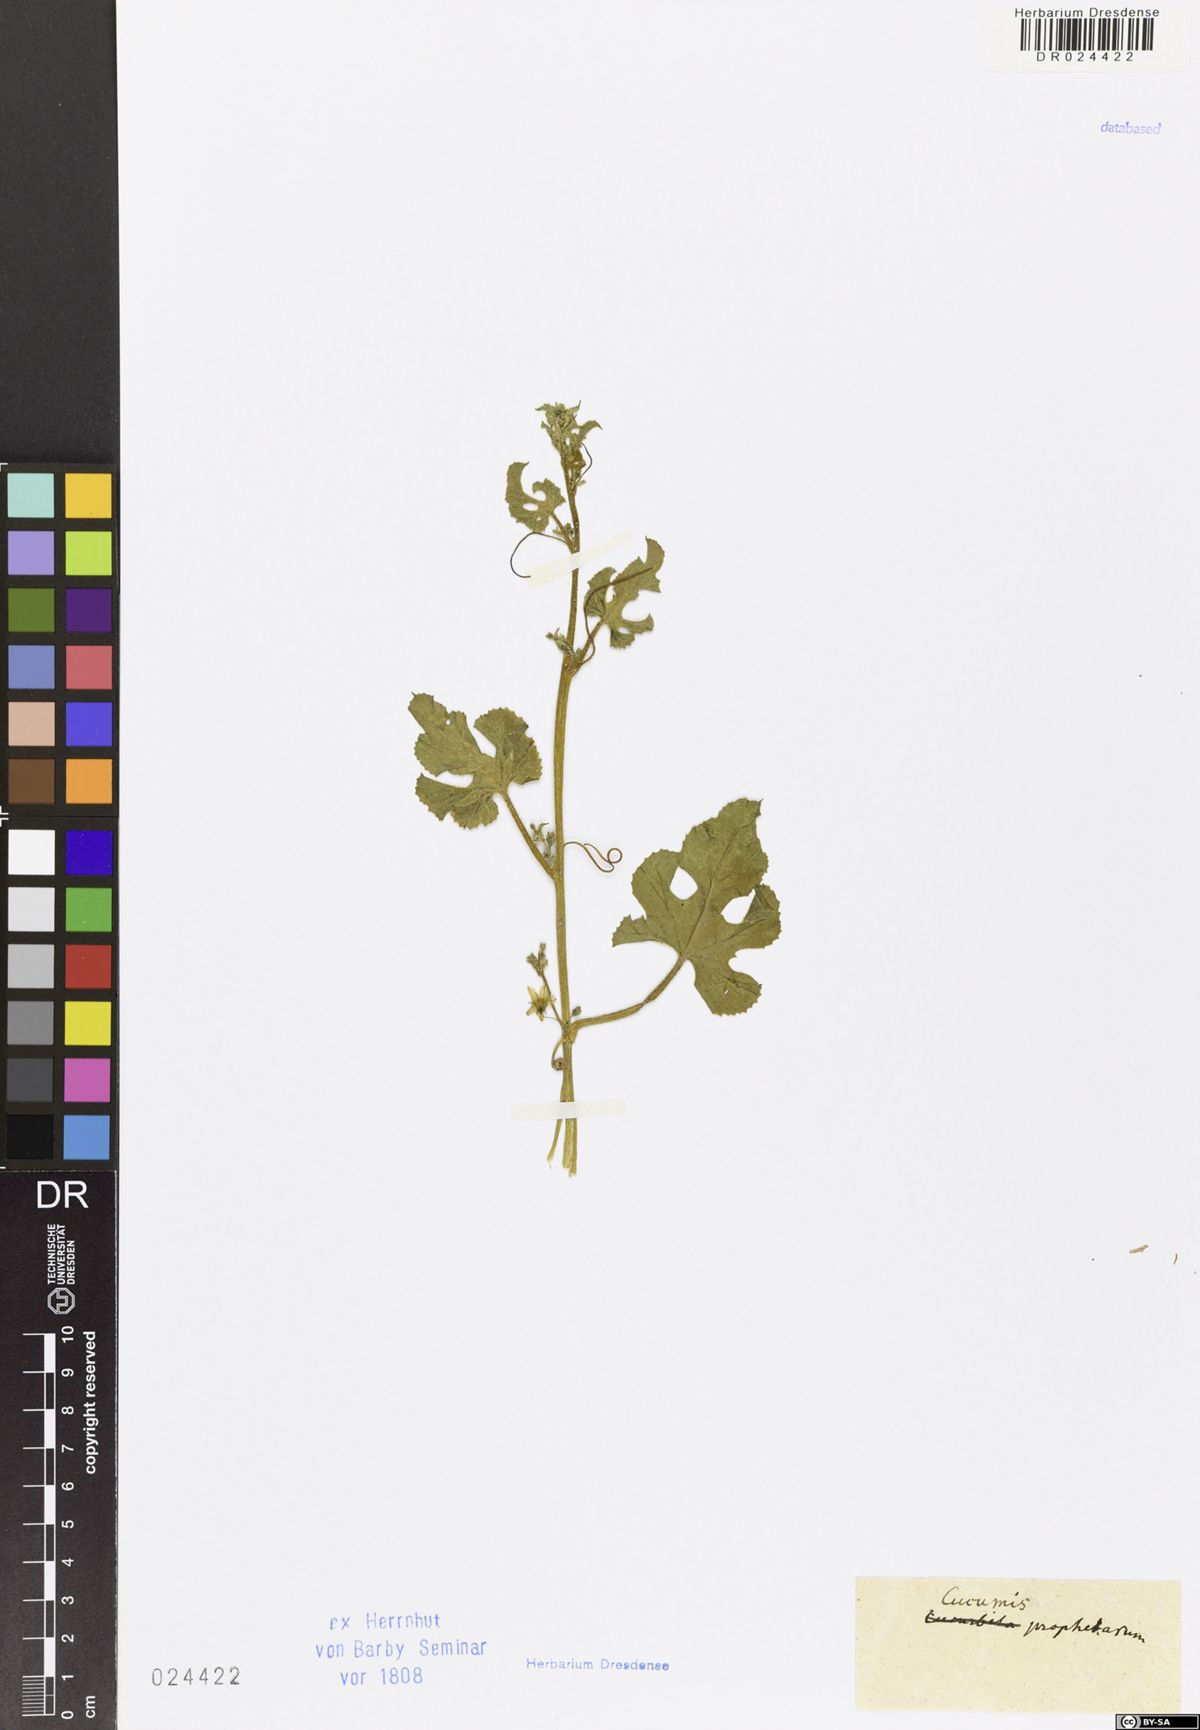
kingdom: Plantae
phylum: Tracheophyta
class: Magnoliopsida
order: Cucurbitales
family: Cucurbitaceae
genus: Cucumis
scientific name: Cucumis prophetarum
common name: Wild cucumber
